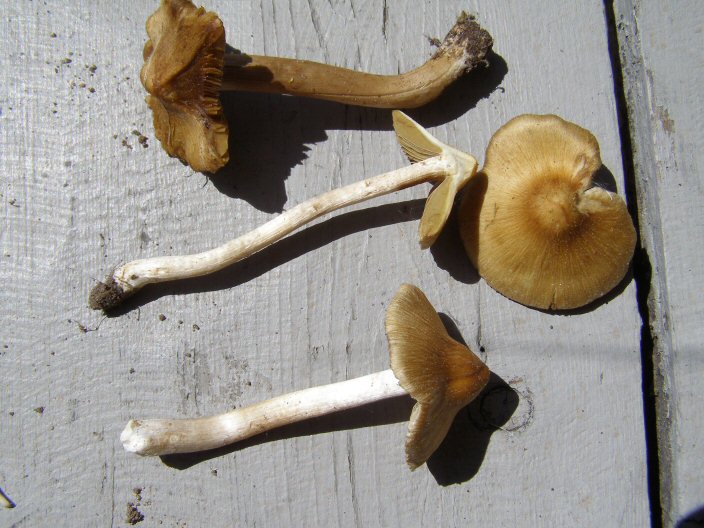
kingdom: Fungi
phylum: Basidiomycota
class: Agaricomycetes
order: Agaricales
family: Inocybaceae
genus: Pseudosperma
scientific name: Pseudosperma flavellum
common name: gul trævlhat
